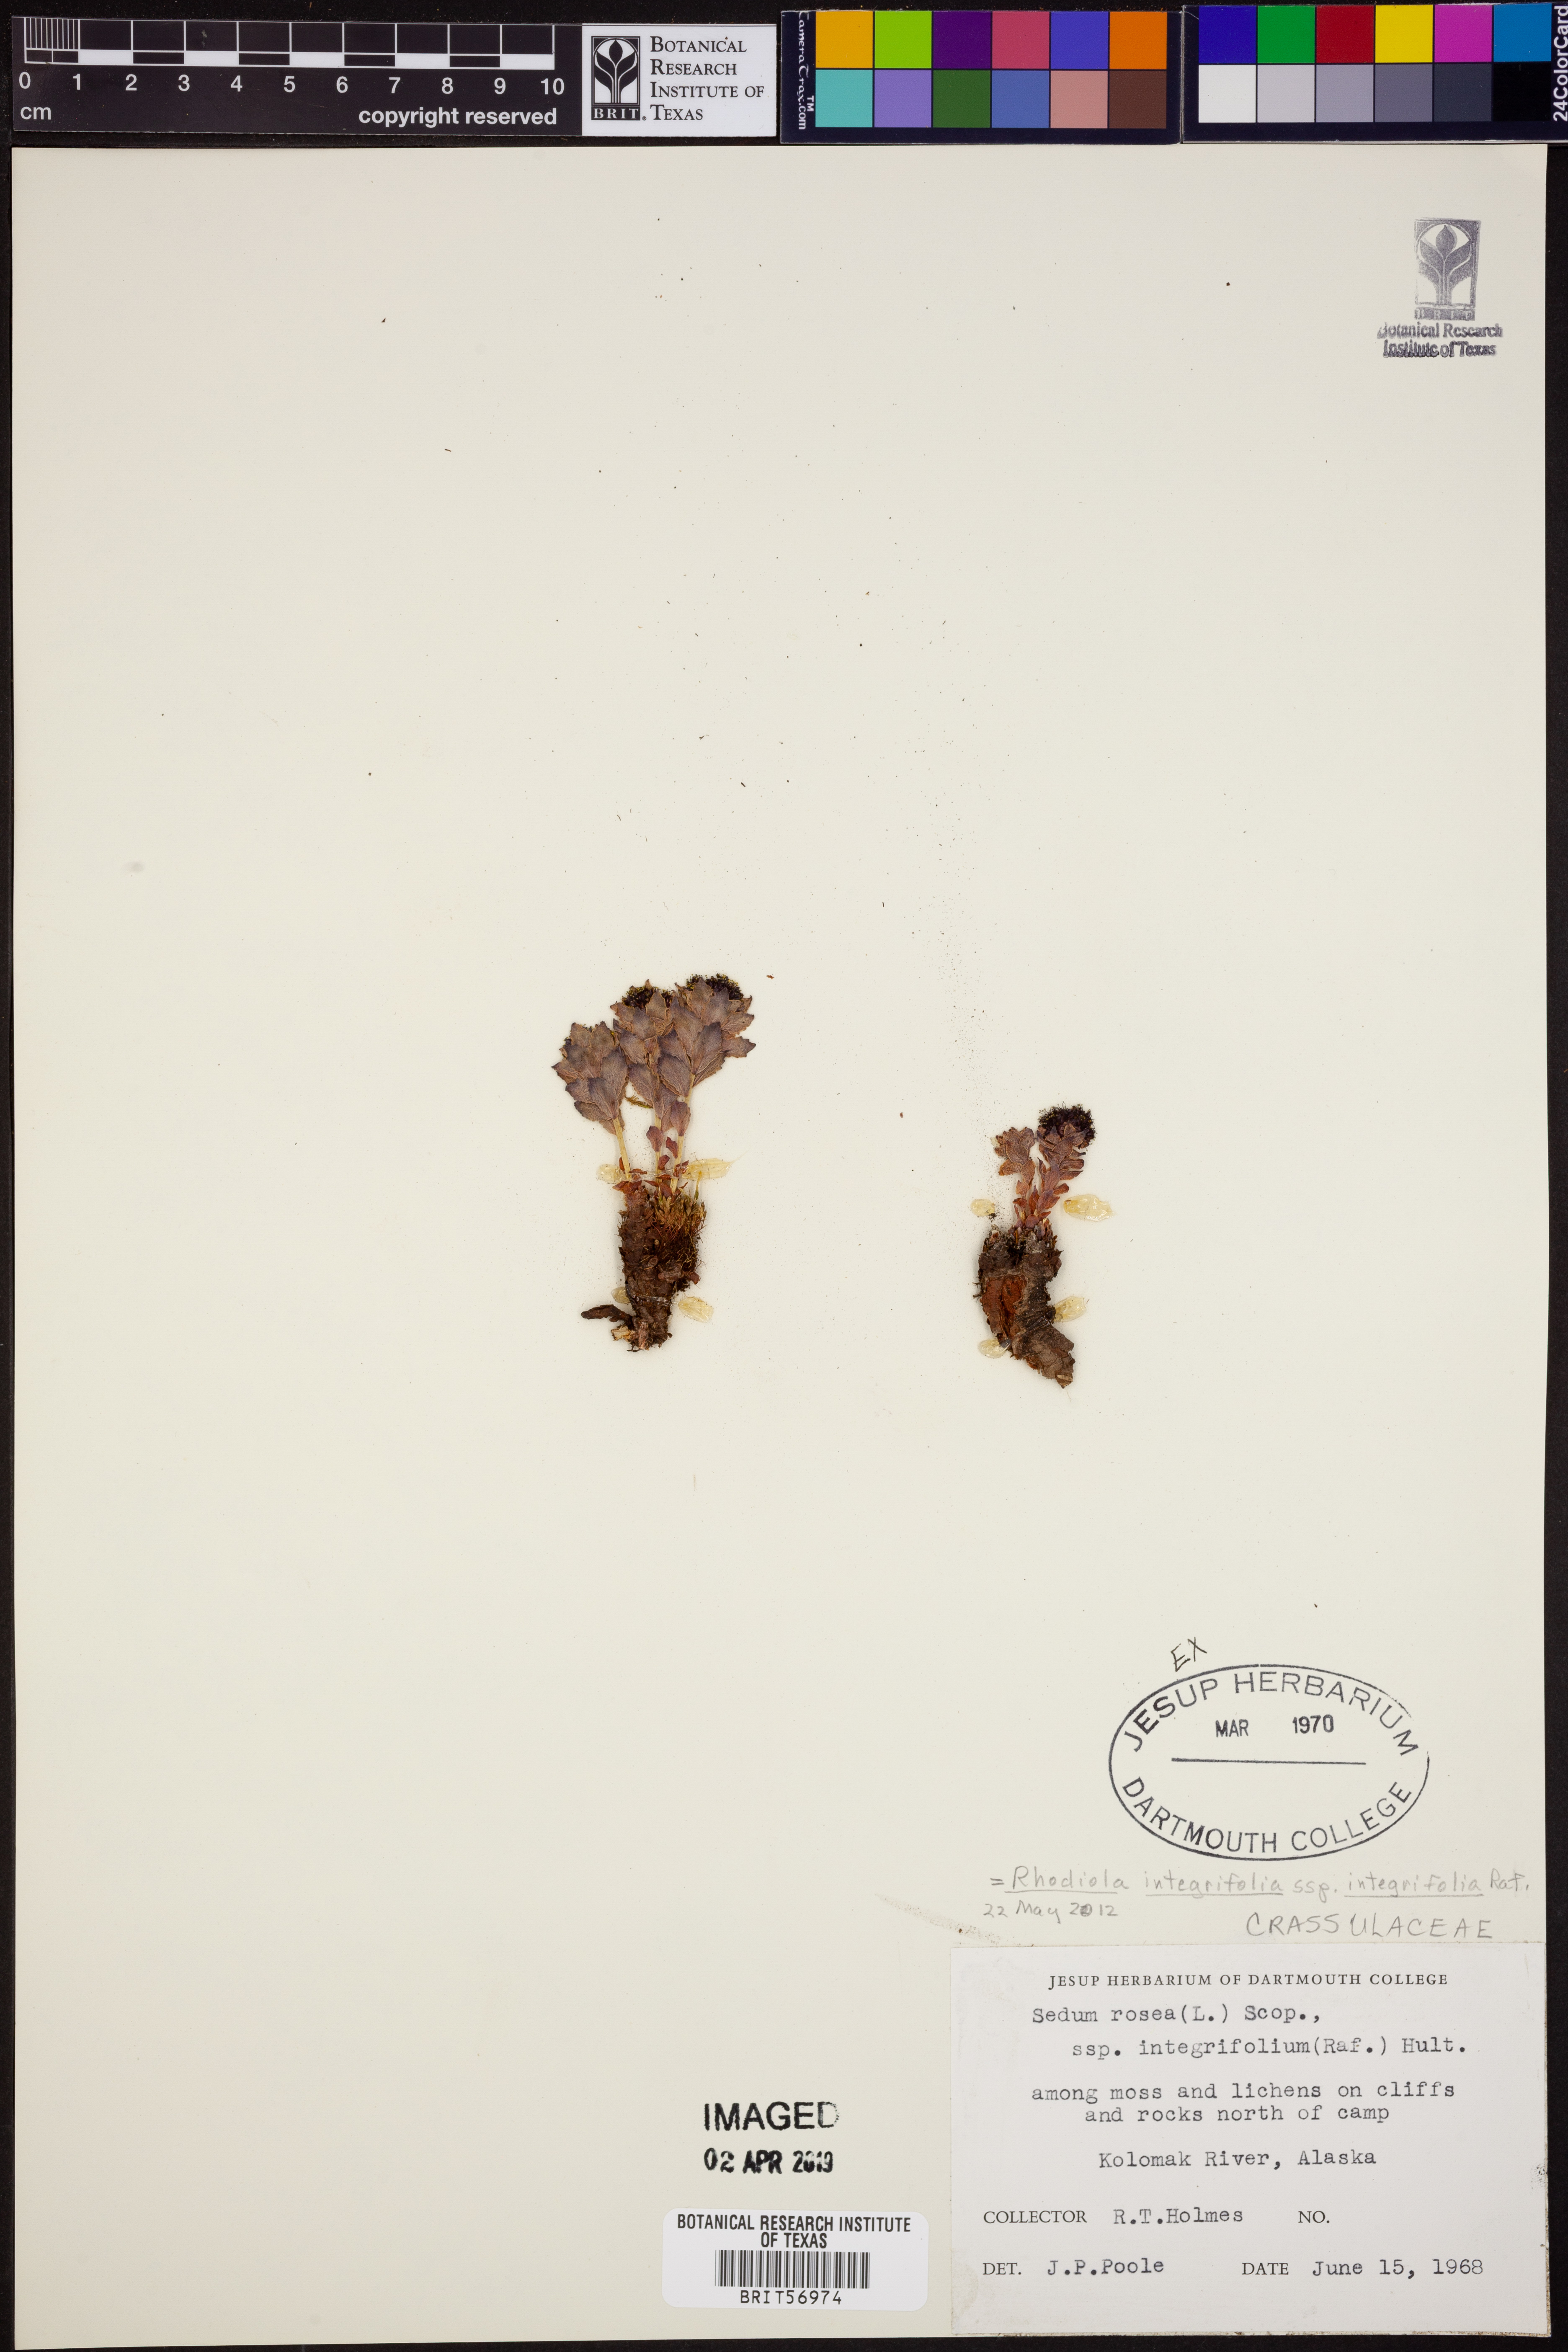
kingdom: Plantae
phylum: Tracheophyta
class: Magnoliopsida
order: Saxifragales
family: Crassulaceae
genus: Rhodiola
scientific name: Rhodiola integrifolia
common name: Western roseroot
